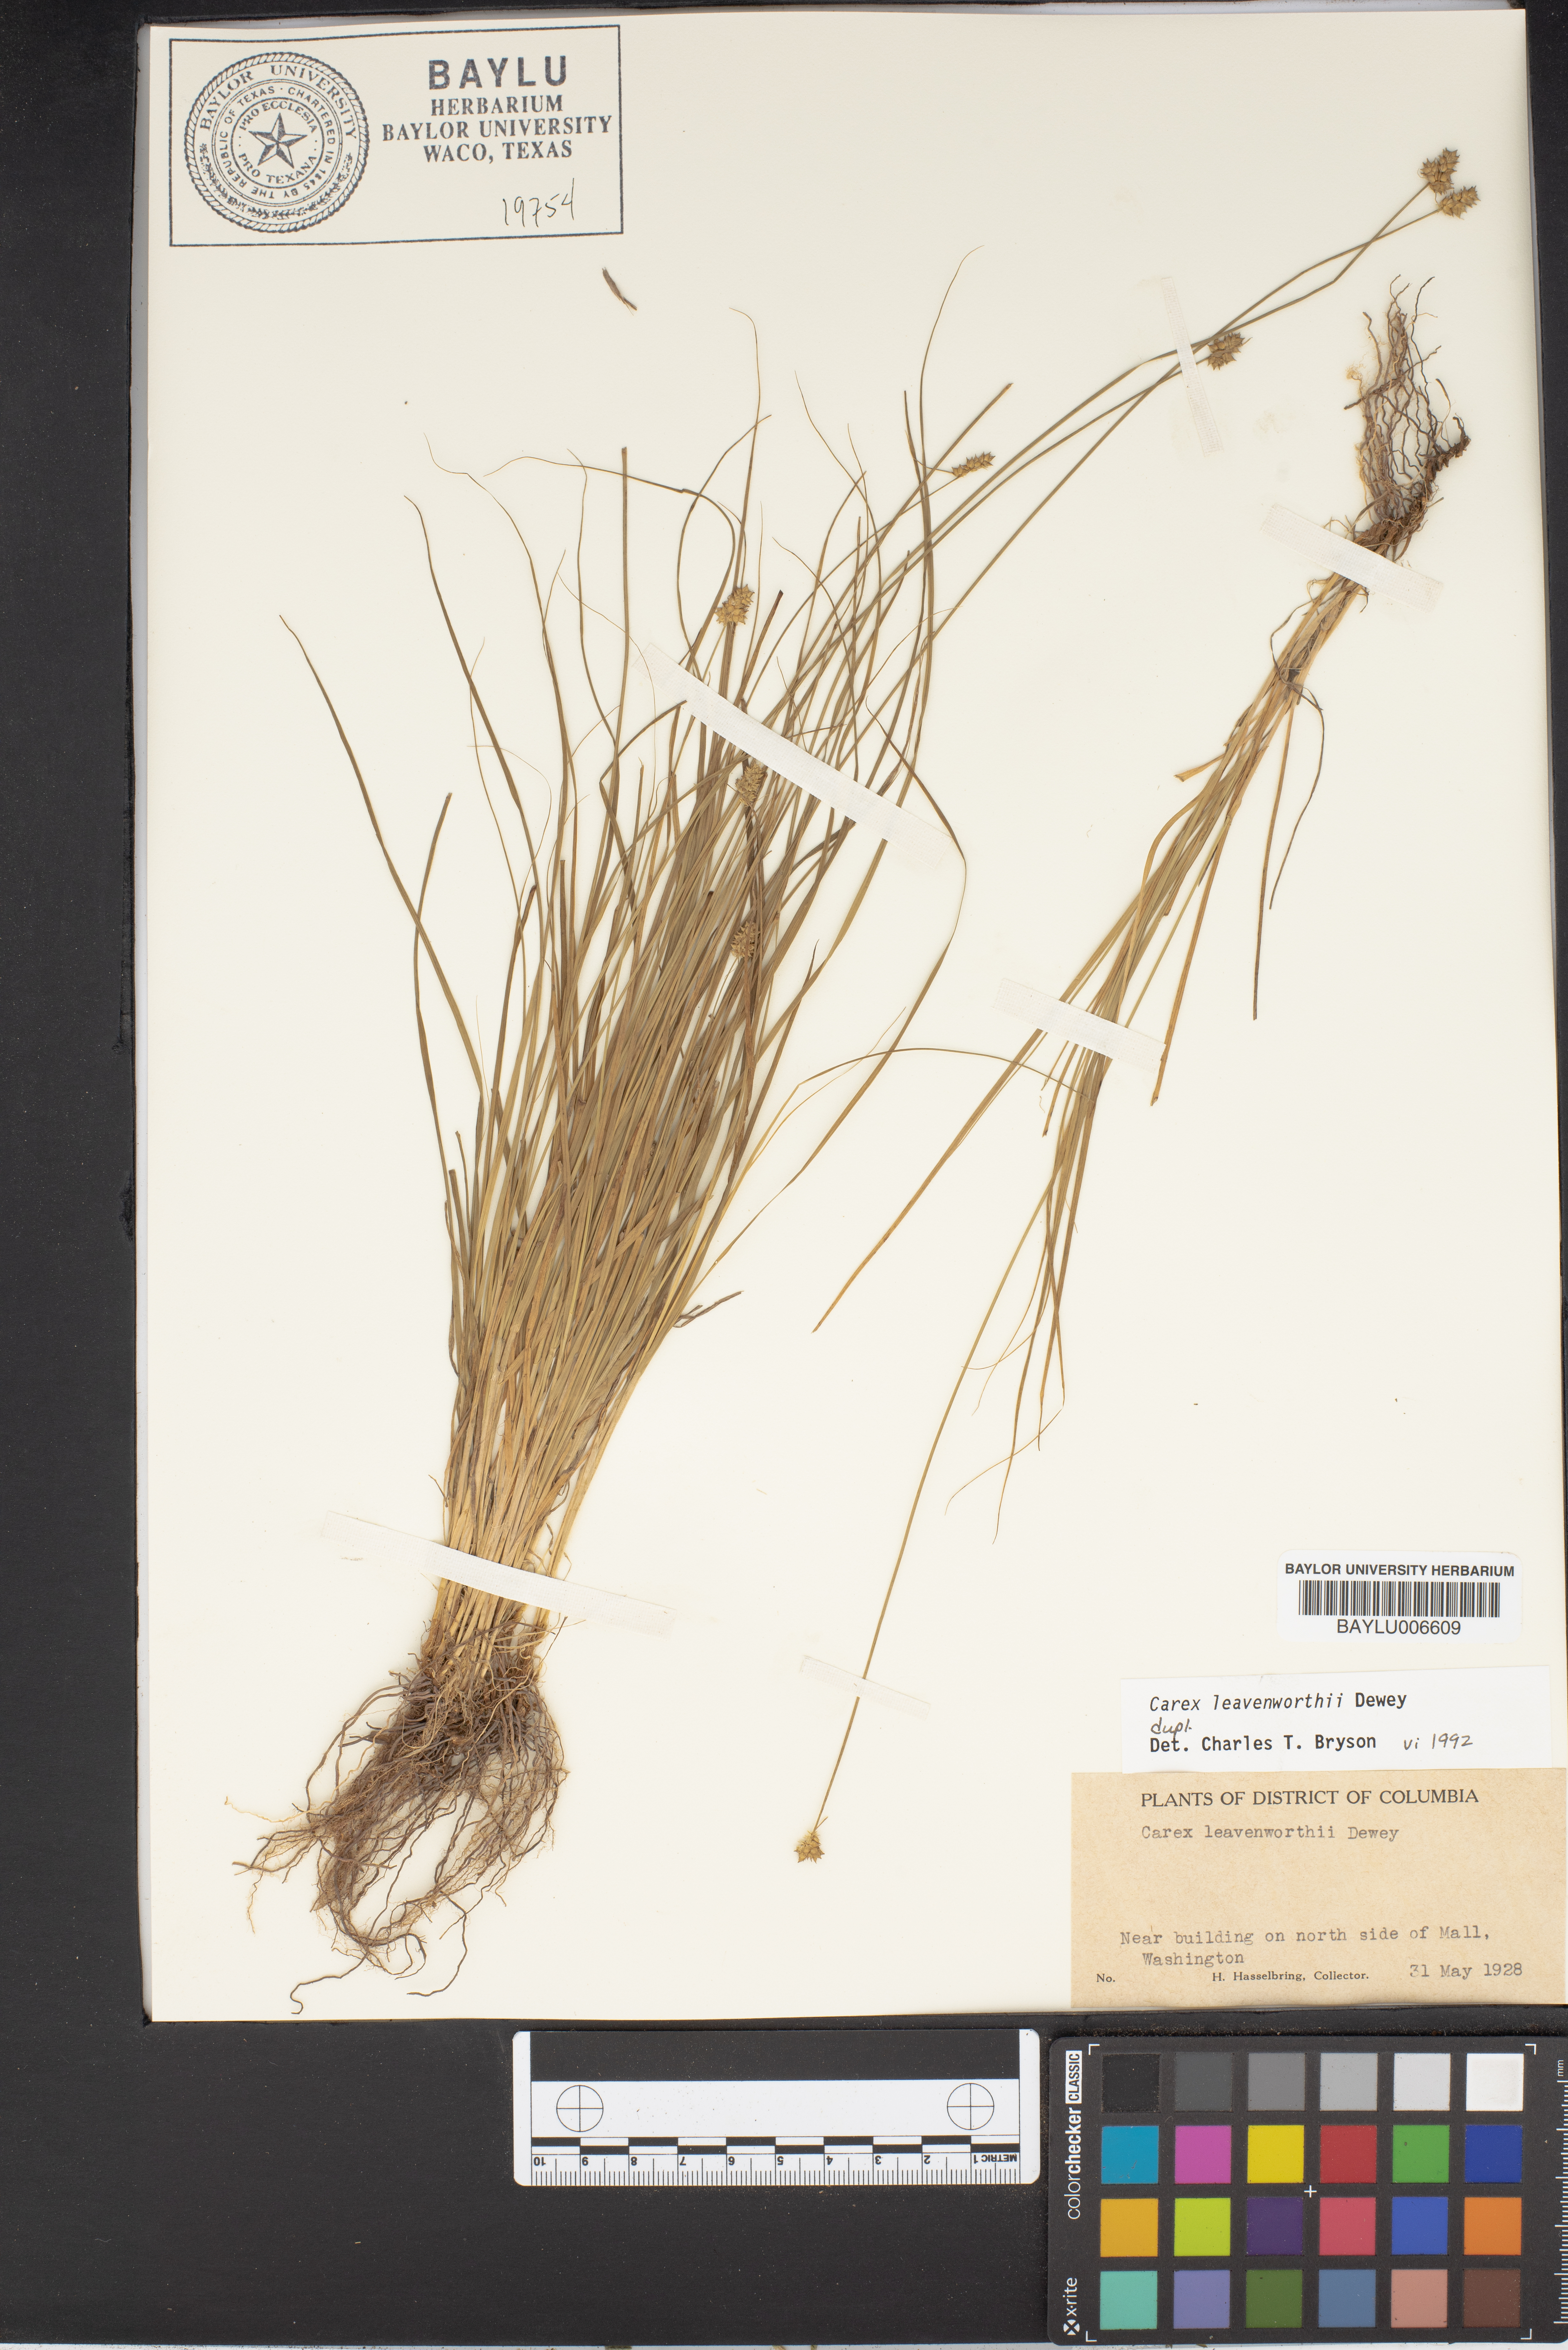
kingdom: Plantae
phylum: Tracheophyta
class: Liliopsida
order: Poales
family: Cyperaceae
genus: Carex
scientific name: Carex leavenworthii
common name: Leavenworth's bracted sedge
